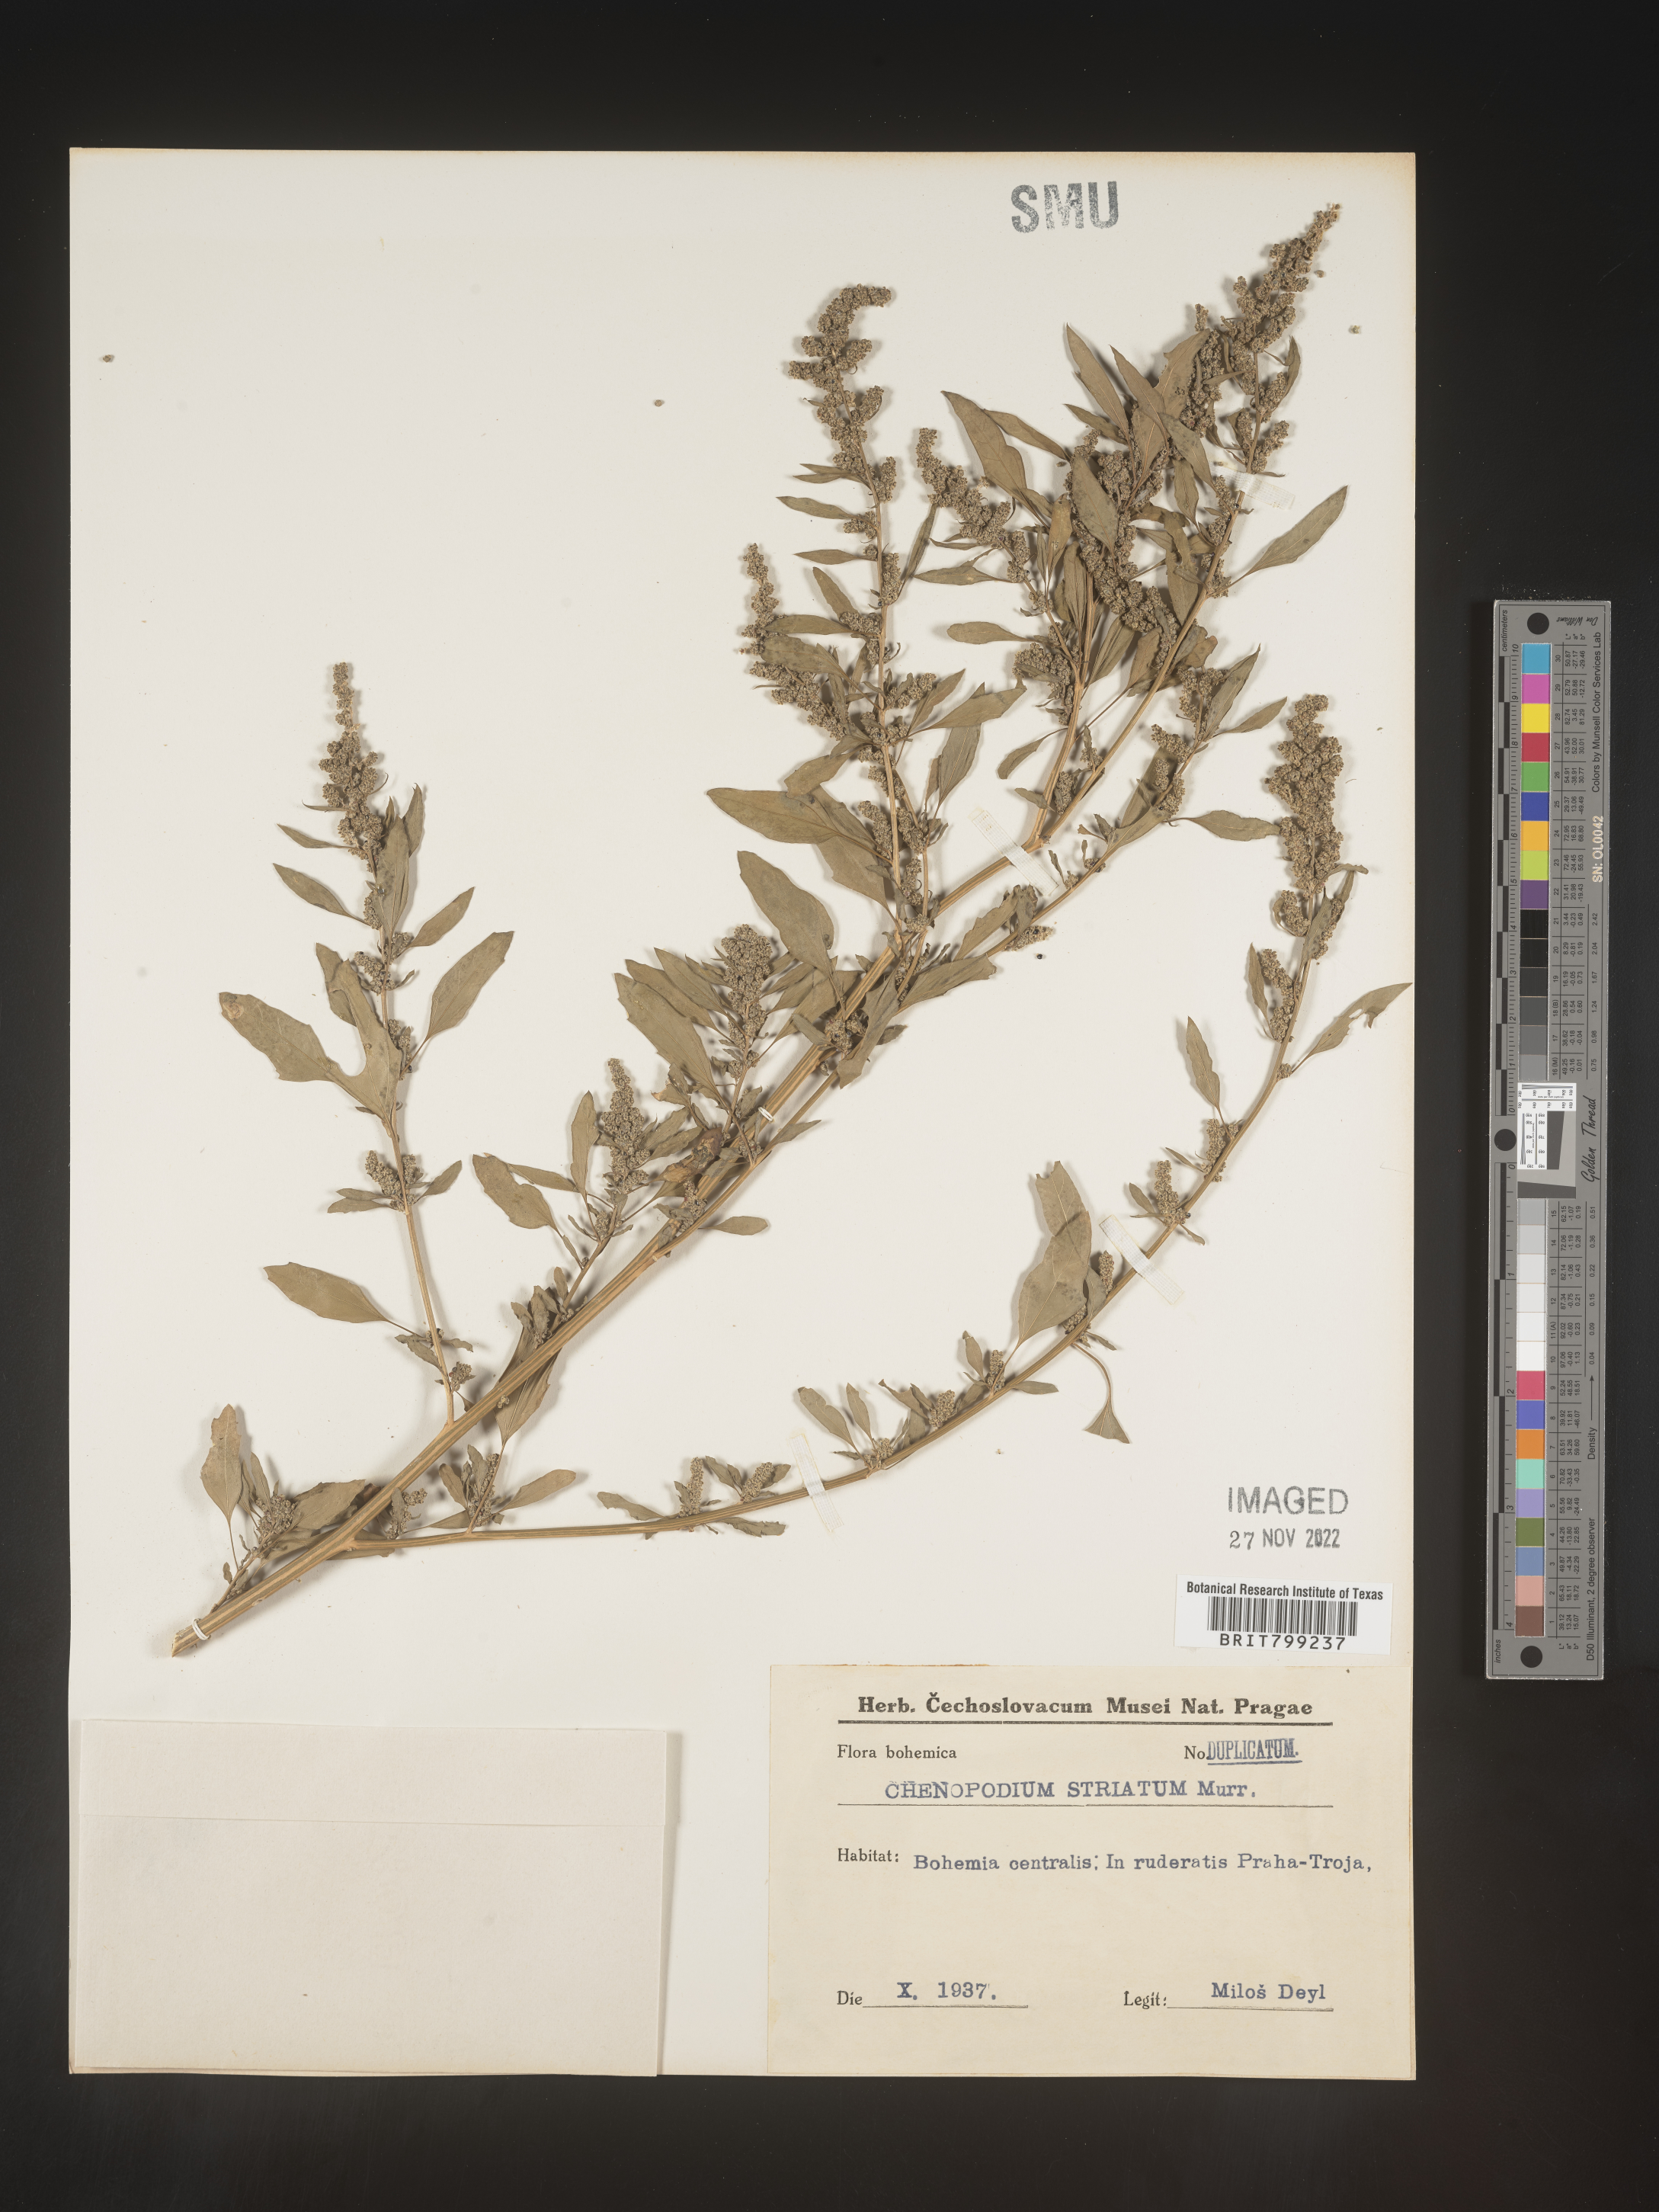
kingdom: Plantae
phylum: Tracheophyta
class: Magnoliopsida
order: Caryophyllales
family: Amaranthaceae
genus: Chenopodium
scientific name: Chenopodium
